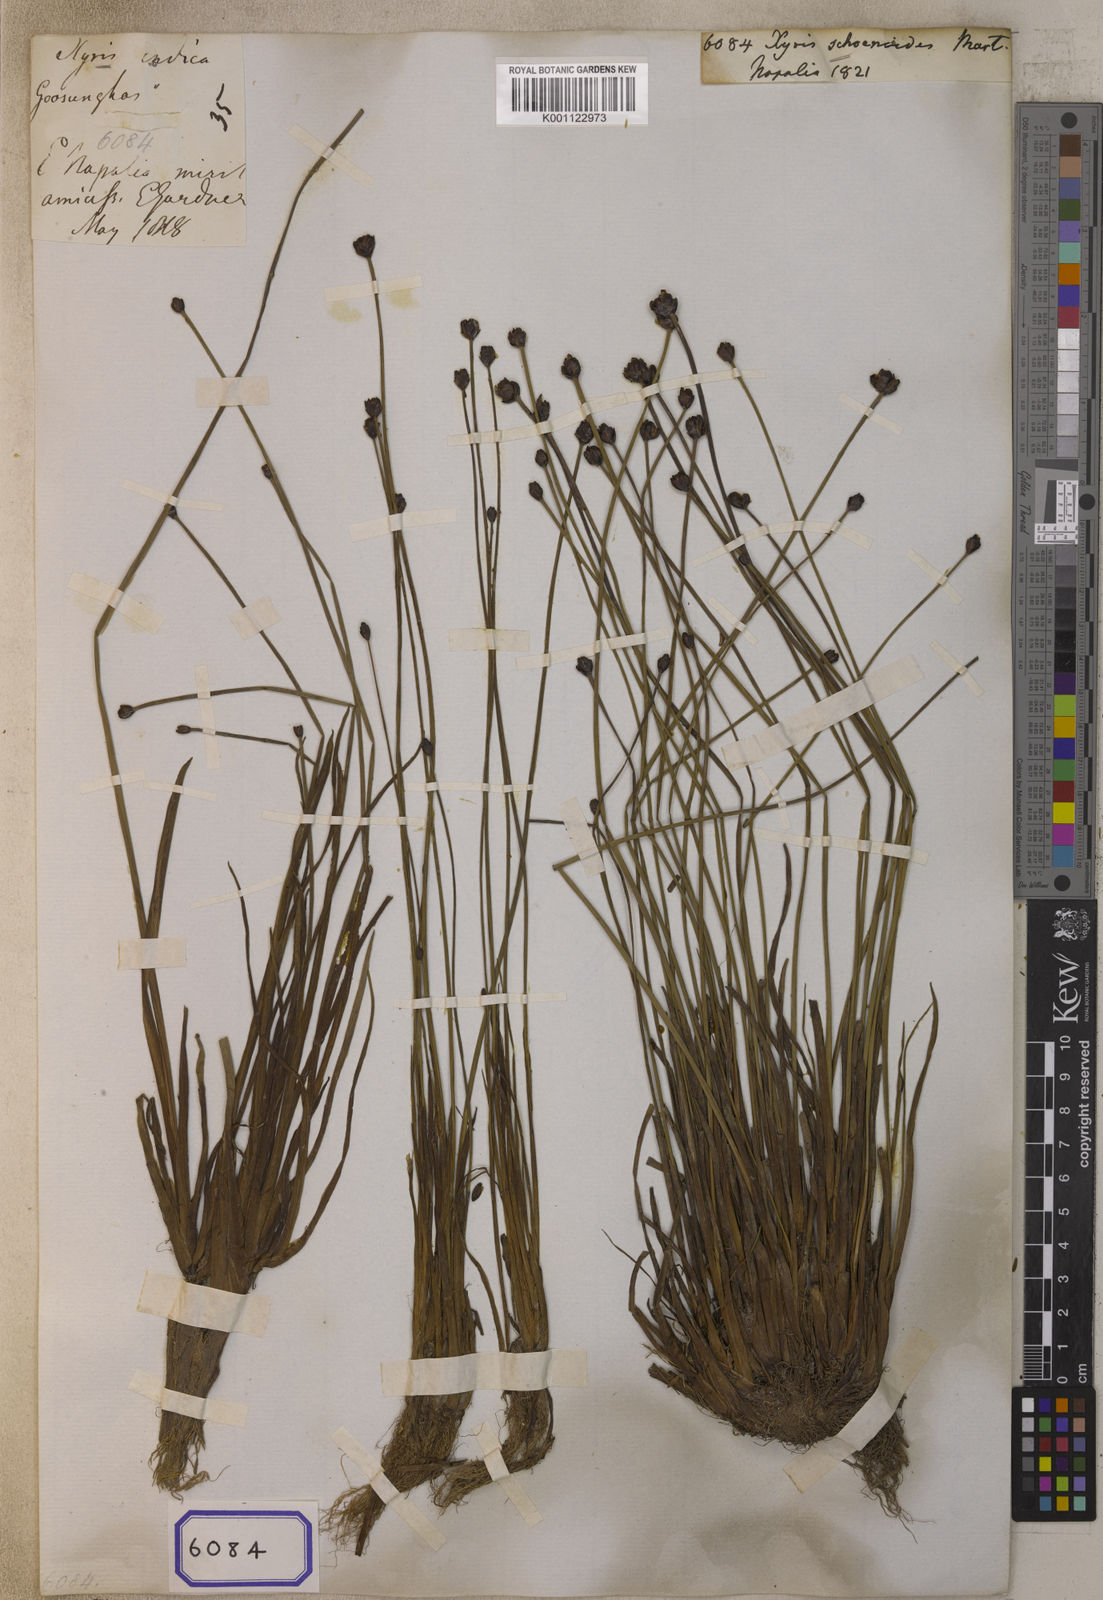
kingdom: Plantae
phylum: Tracheophyta
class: Liliopsida
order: Poales
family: Xyridaceae
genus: Xyris
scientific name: Xyris capensis
